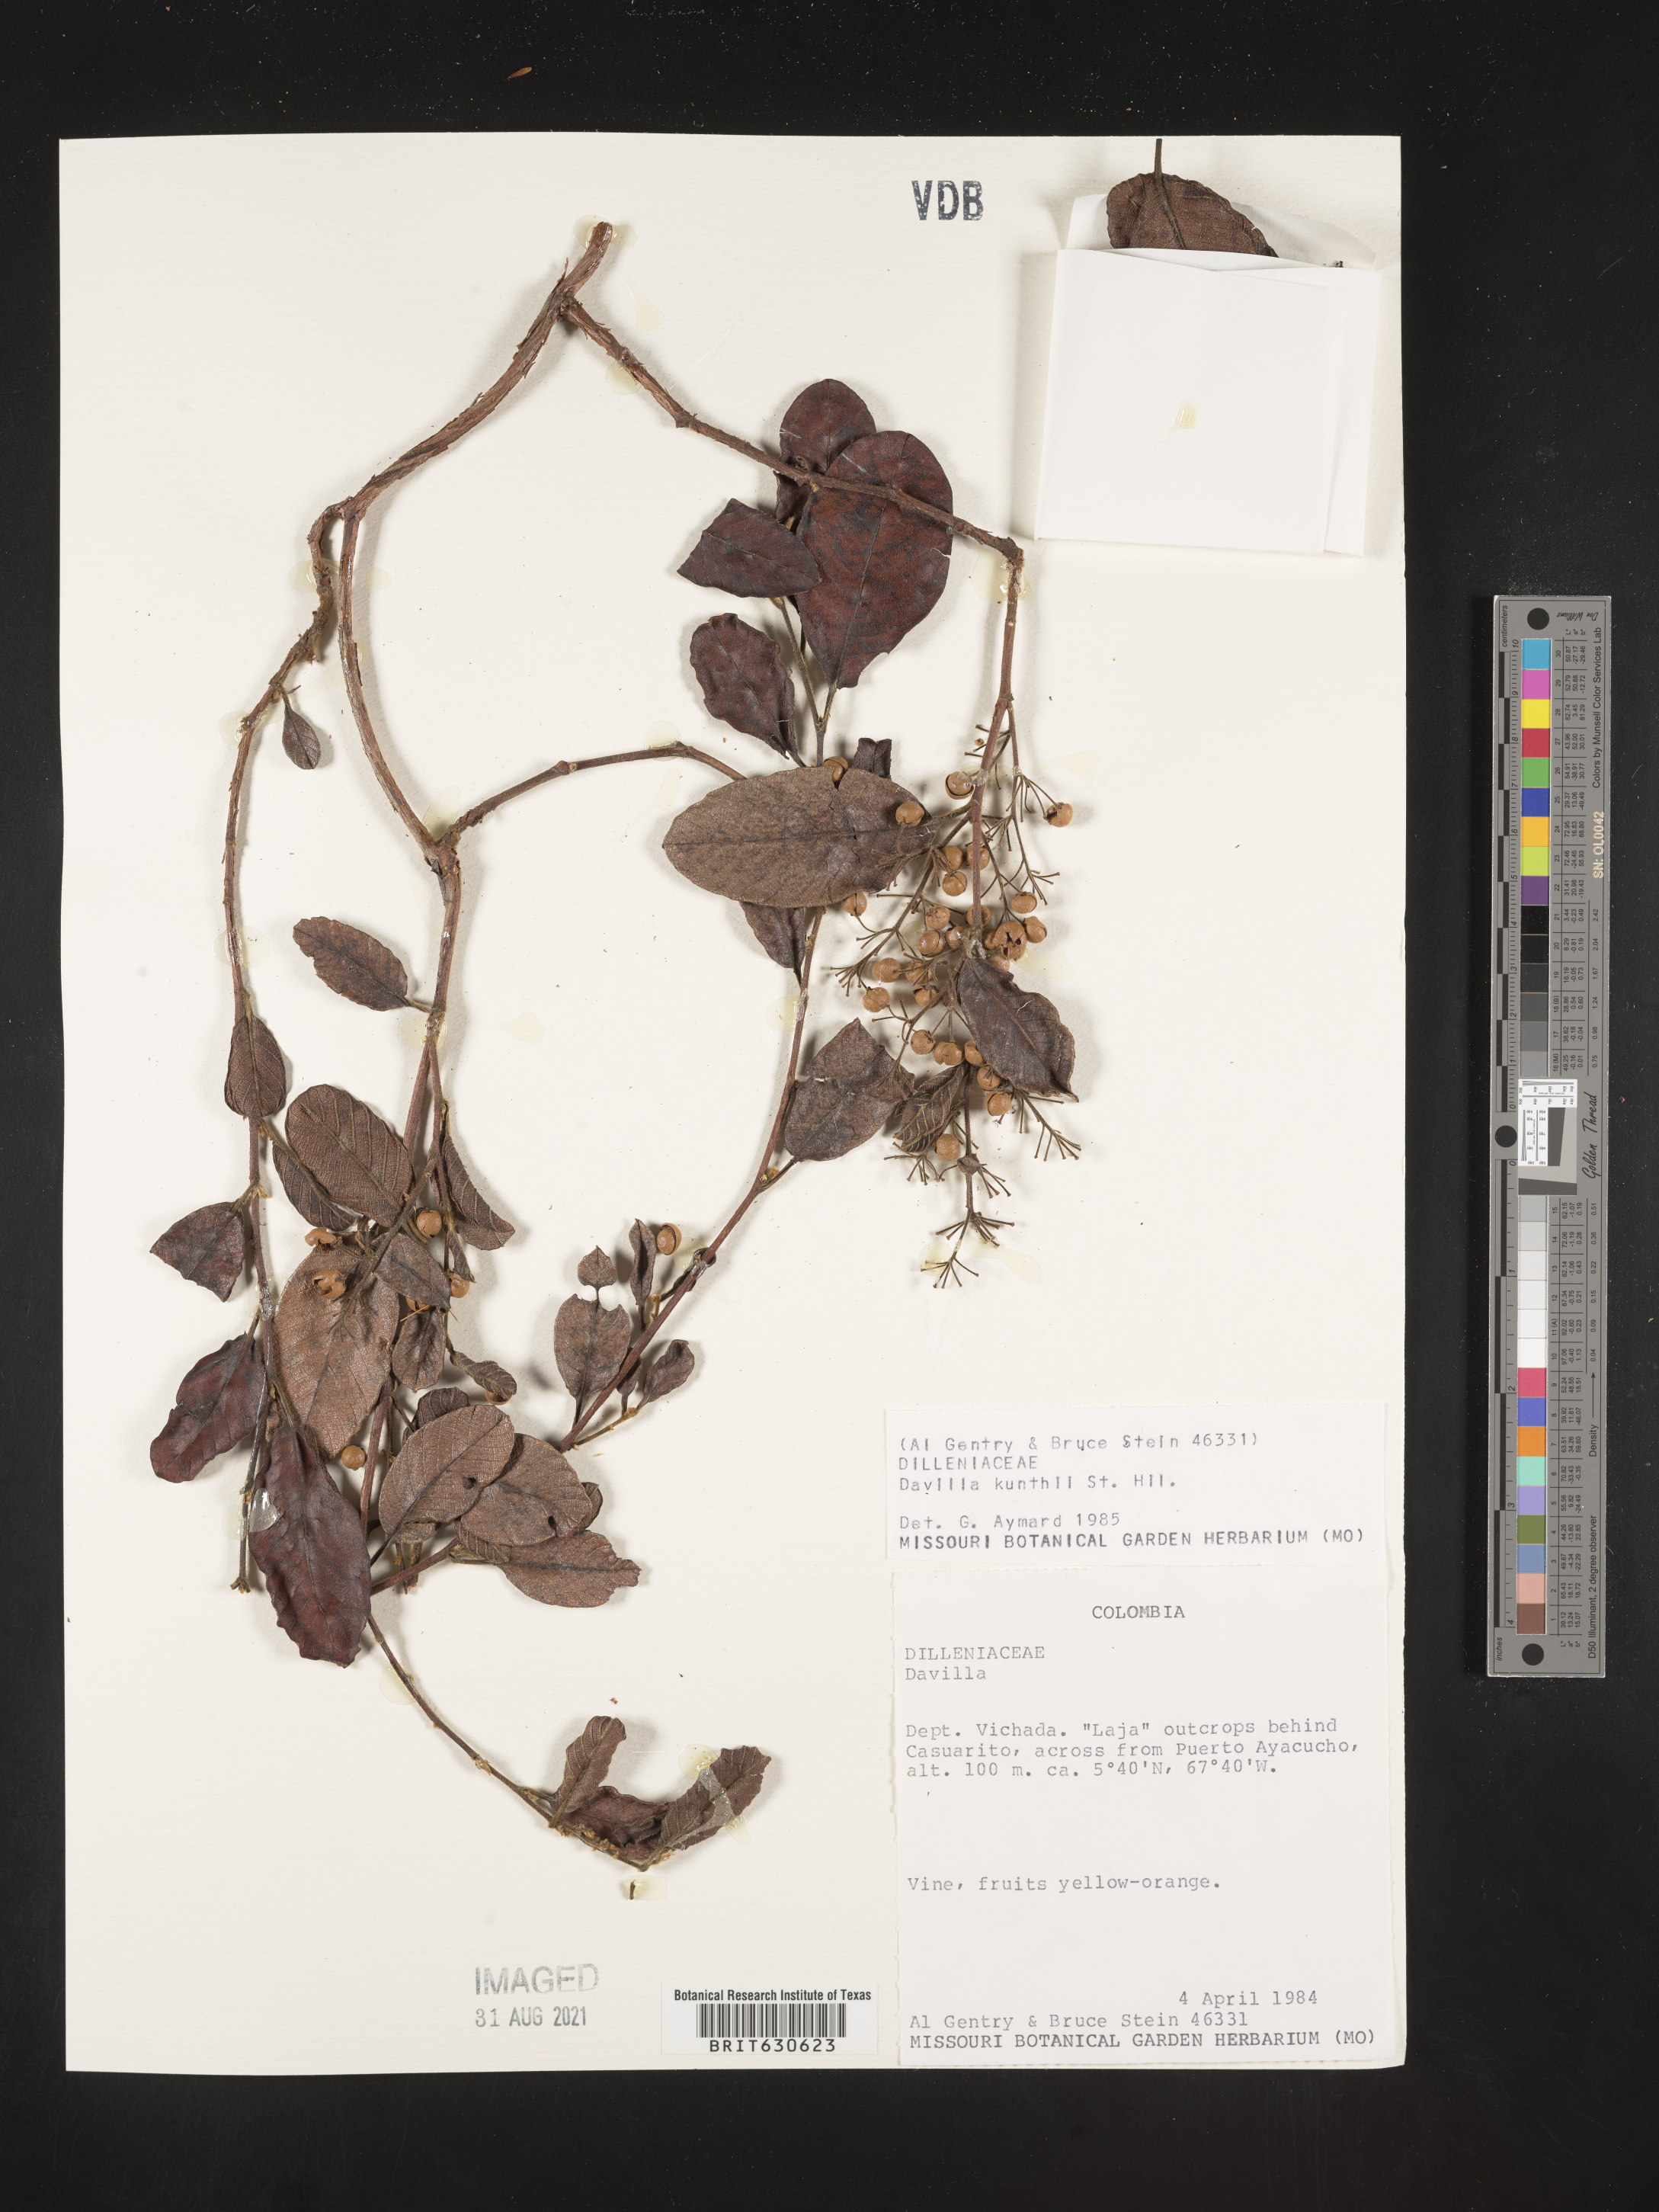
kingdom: Plantae
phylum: Tracheophyta
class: Magnoliopsida
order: Dilleniales
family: Dilleniaceae
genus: Davilla
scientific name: Davilla
